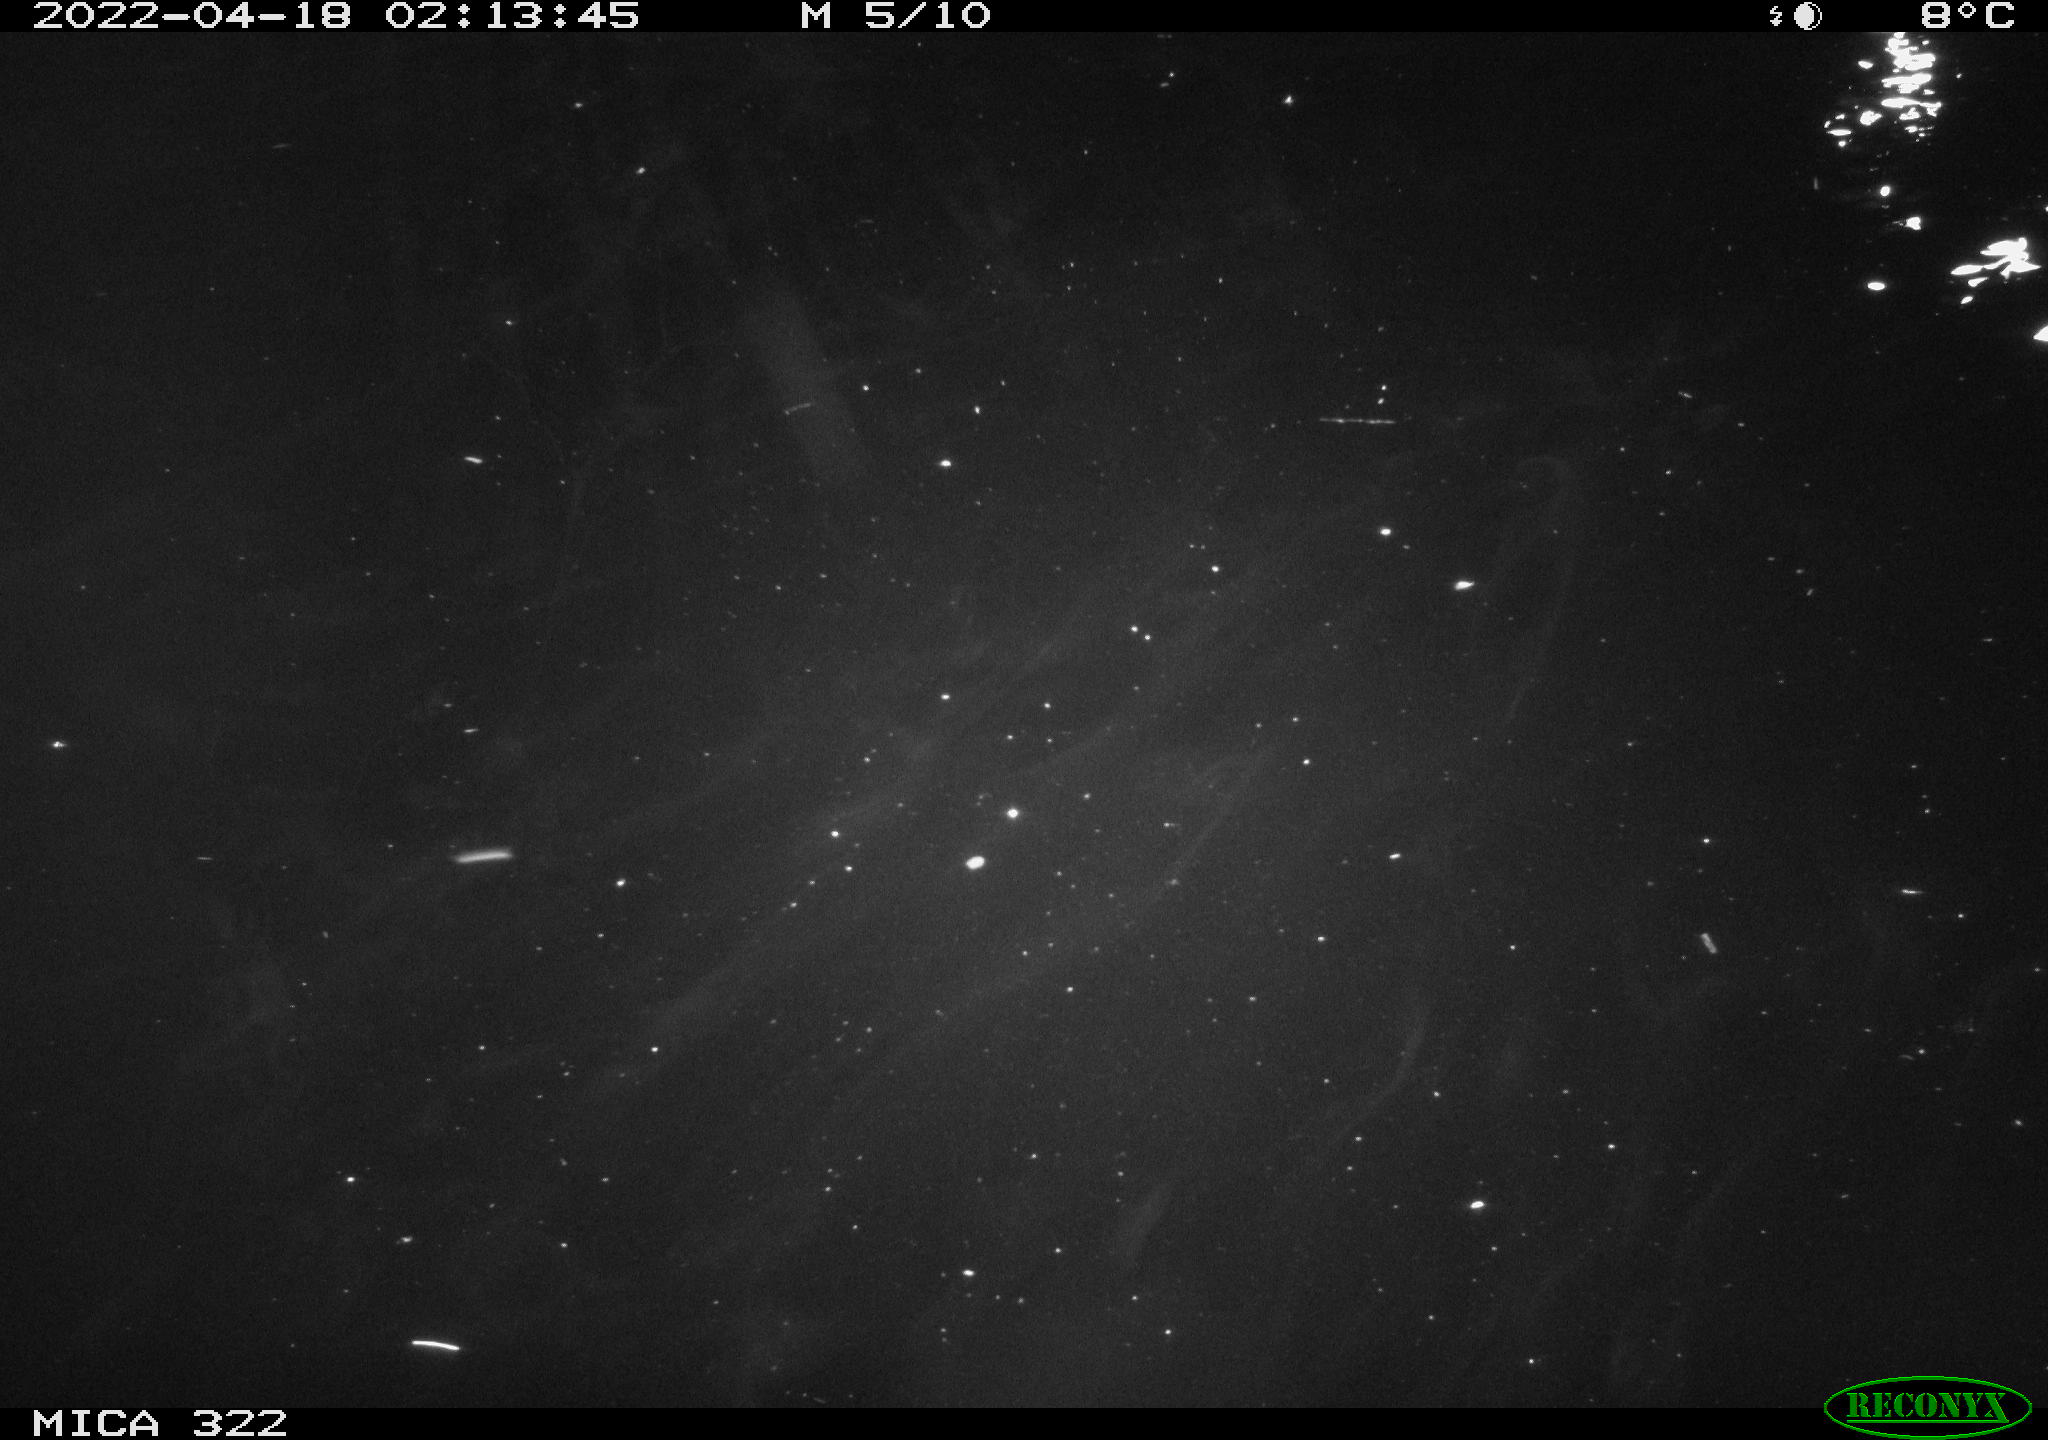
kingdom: Animalia
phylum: Chordata
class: Aves
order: Anseriformes
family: Anatidae
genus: Anas
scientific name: Anas platyrhynchos
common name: Mallard
